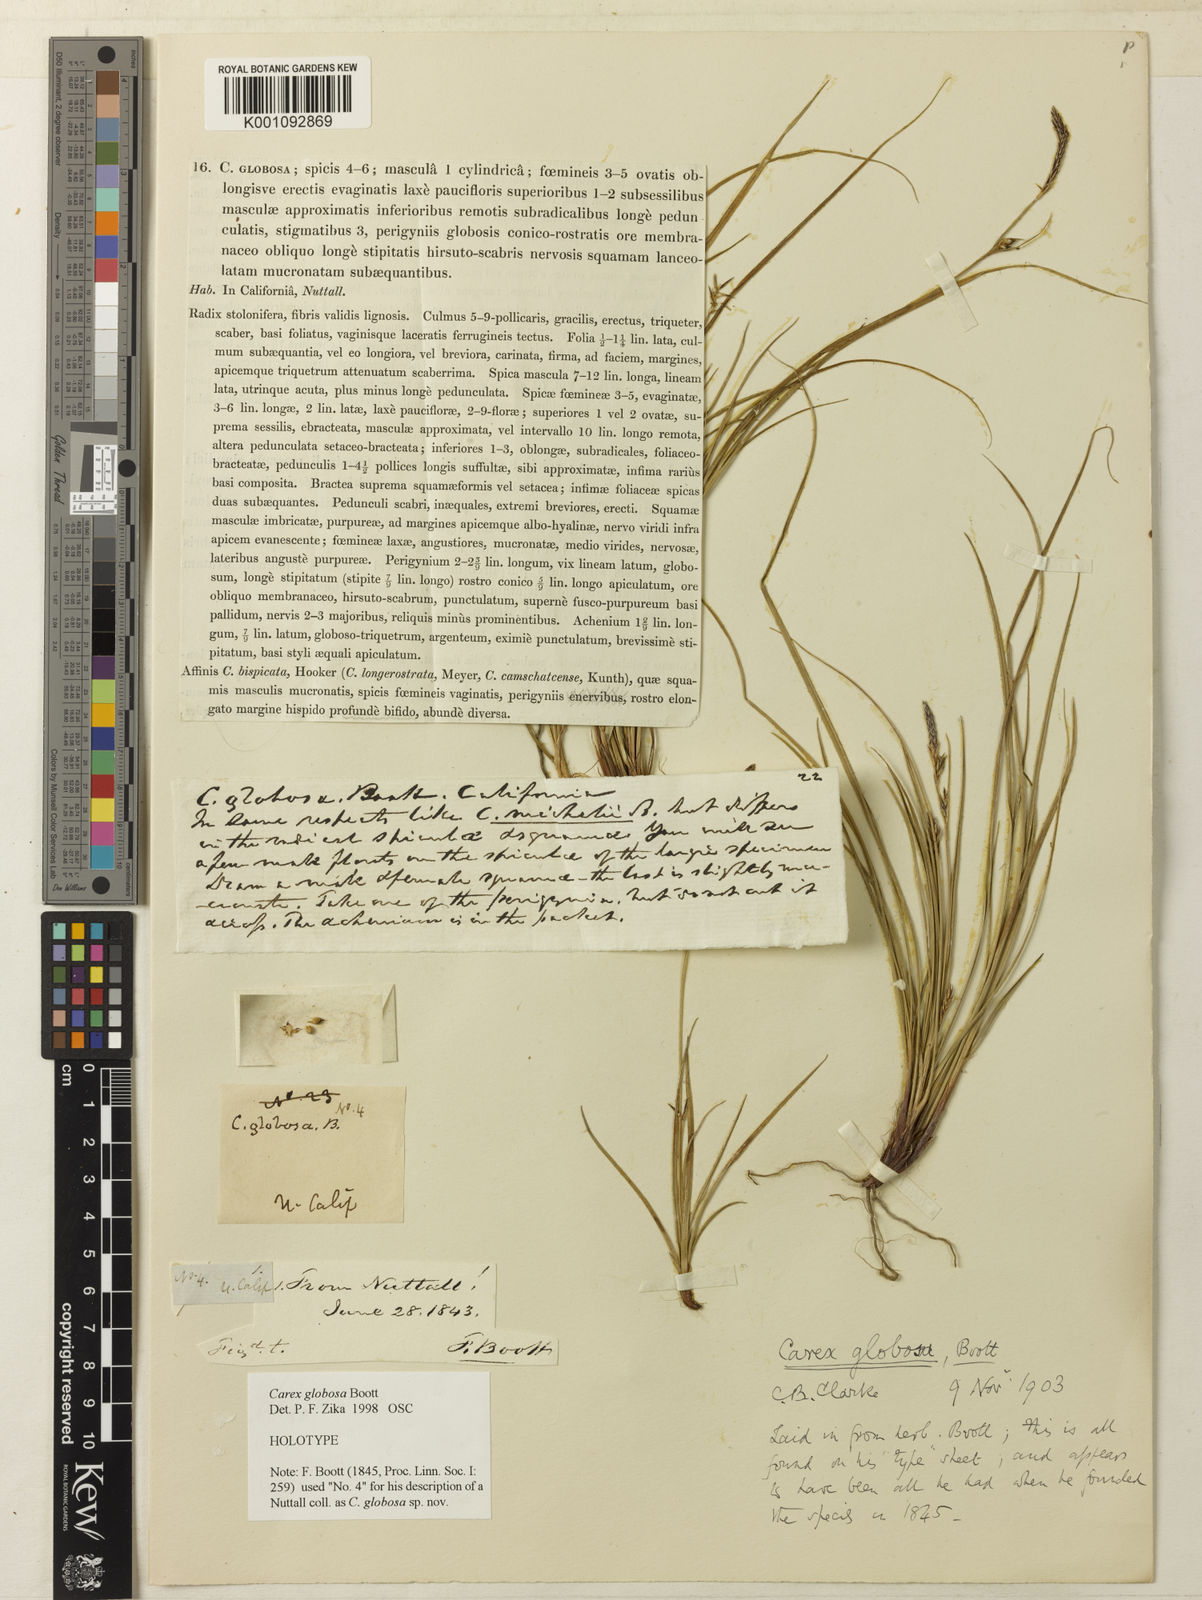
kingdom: Plantae
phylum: Tracheophyta
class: Liliopsida
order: Poales
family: Cyperaceae
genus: Carex
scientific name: Carex globosa
